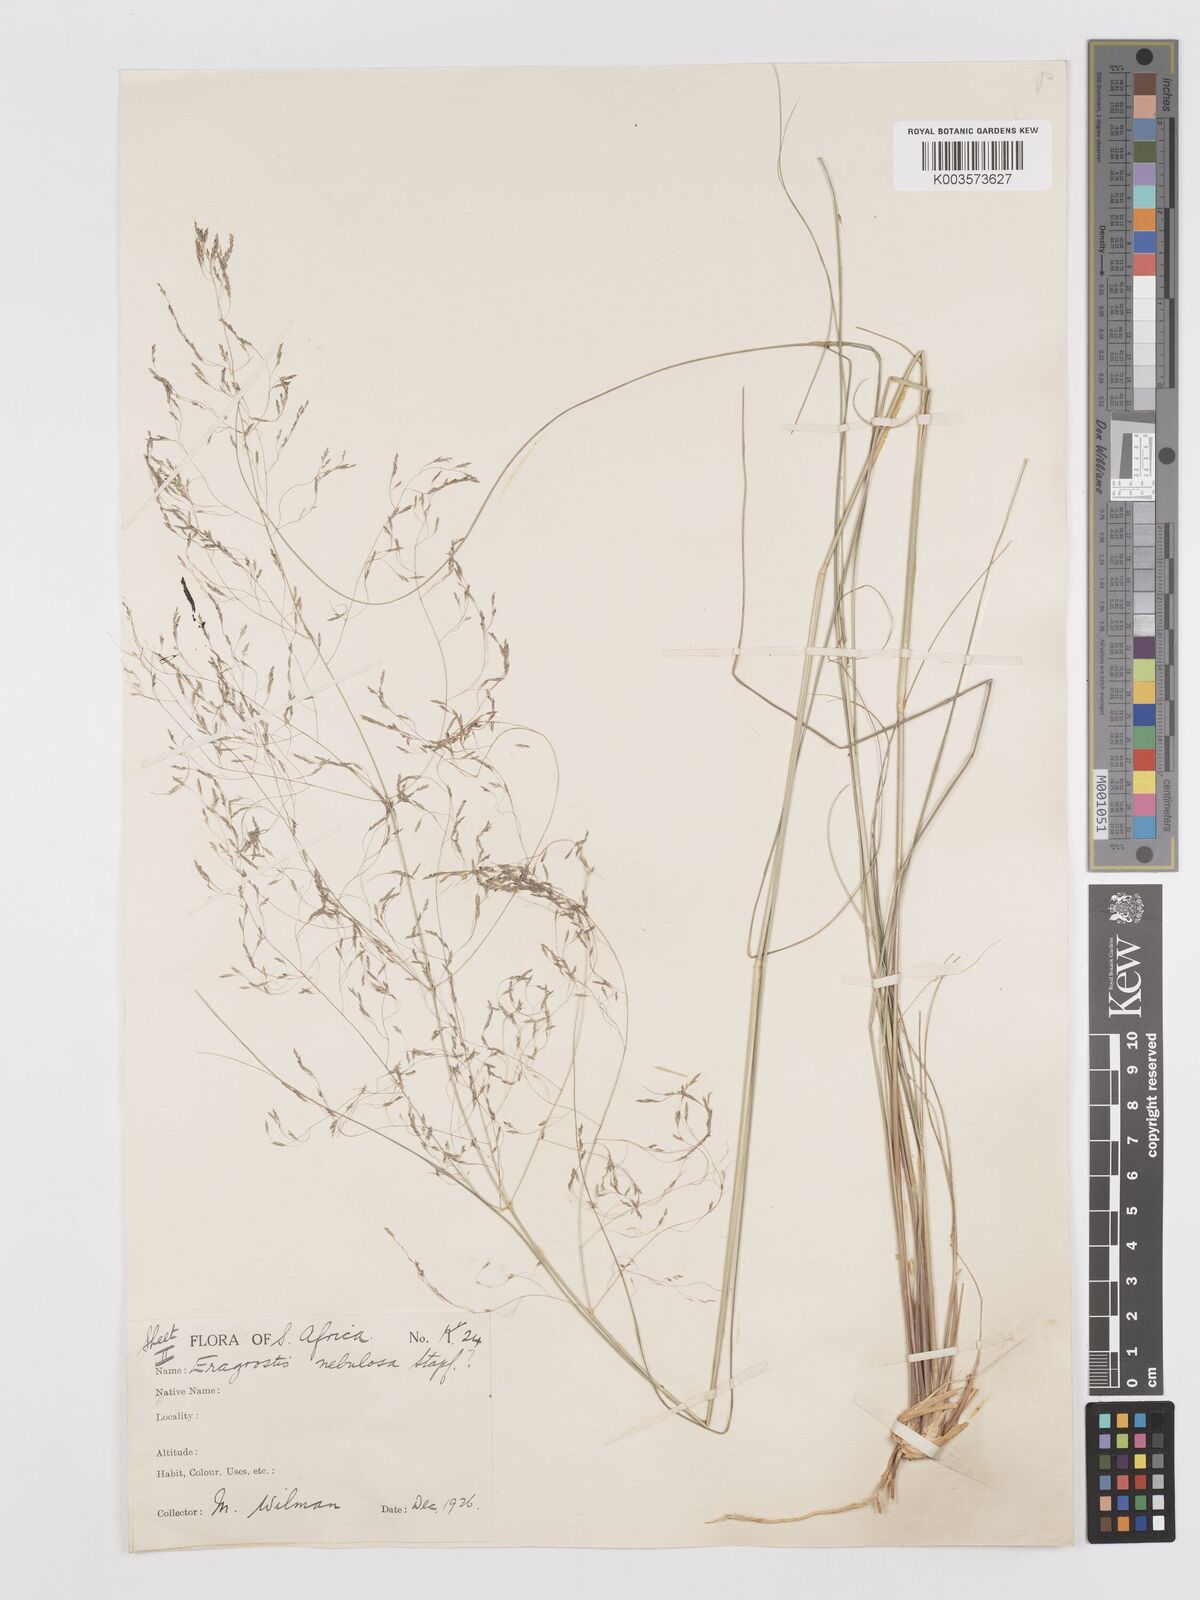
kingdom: Plantae
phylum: Tracheophyta
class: Liliopsida
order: Poales
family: Poaceae
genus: Eragrostis
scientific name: Eragrostis planiculmis
